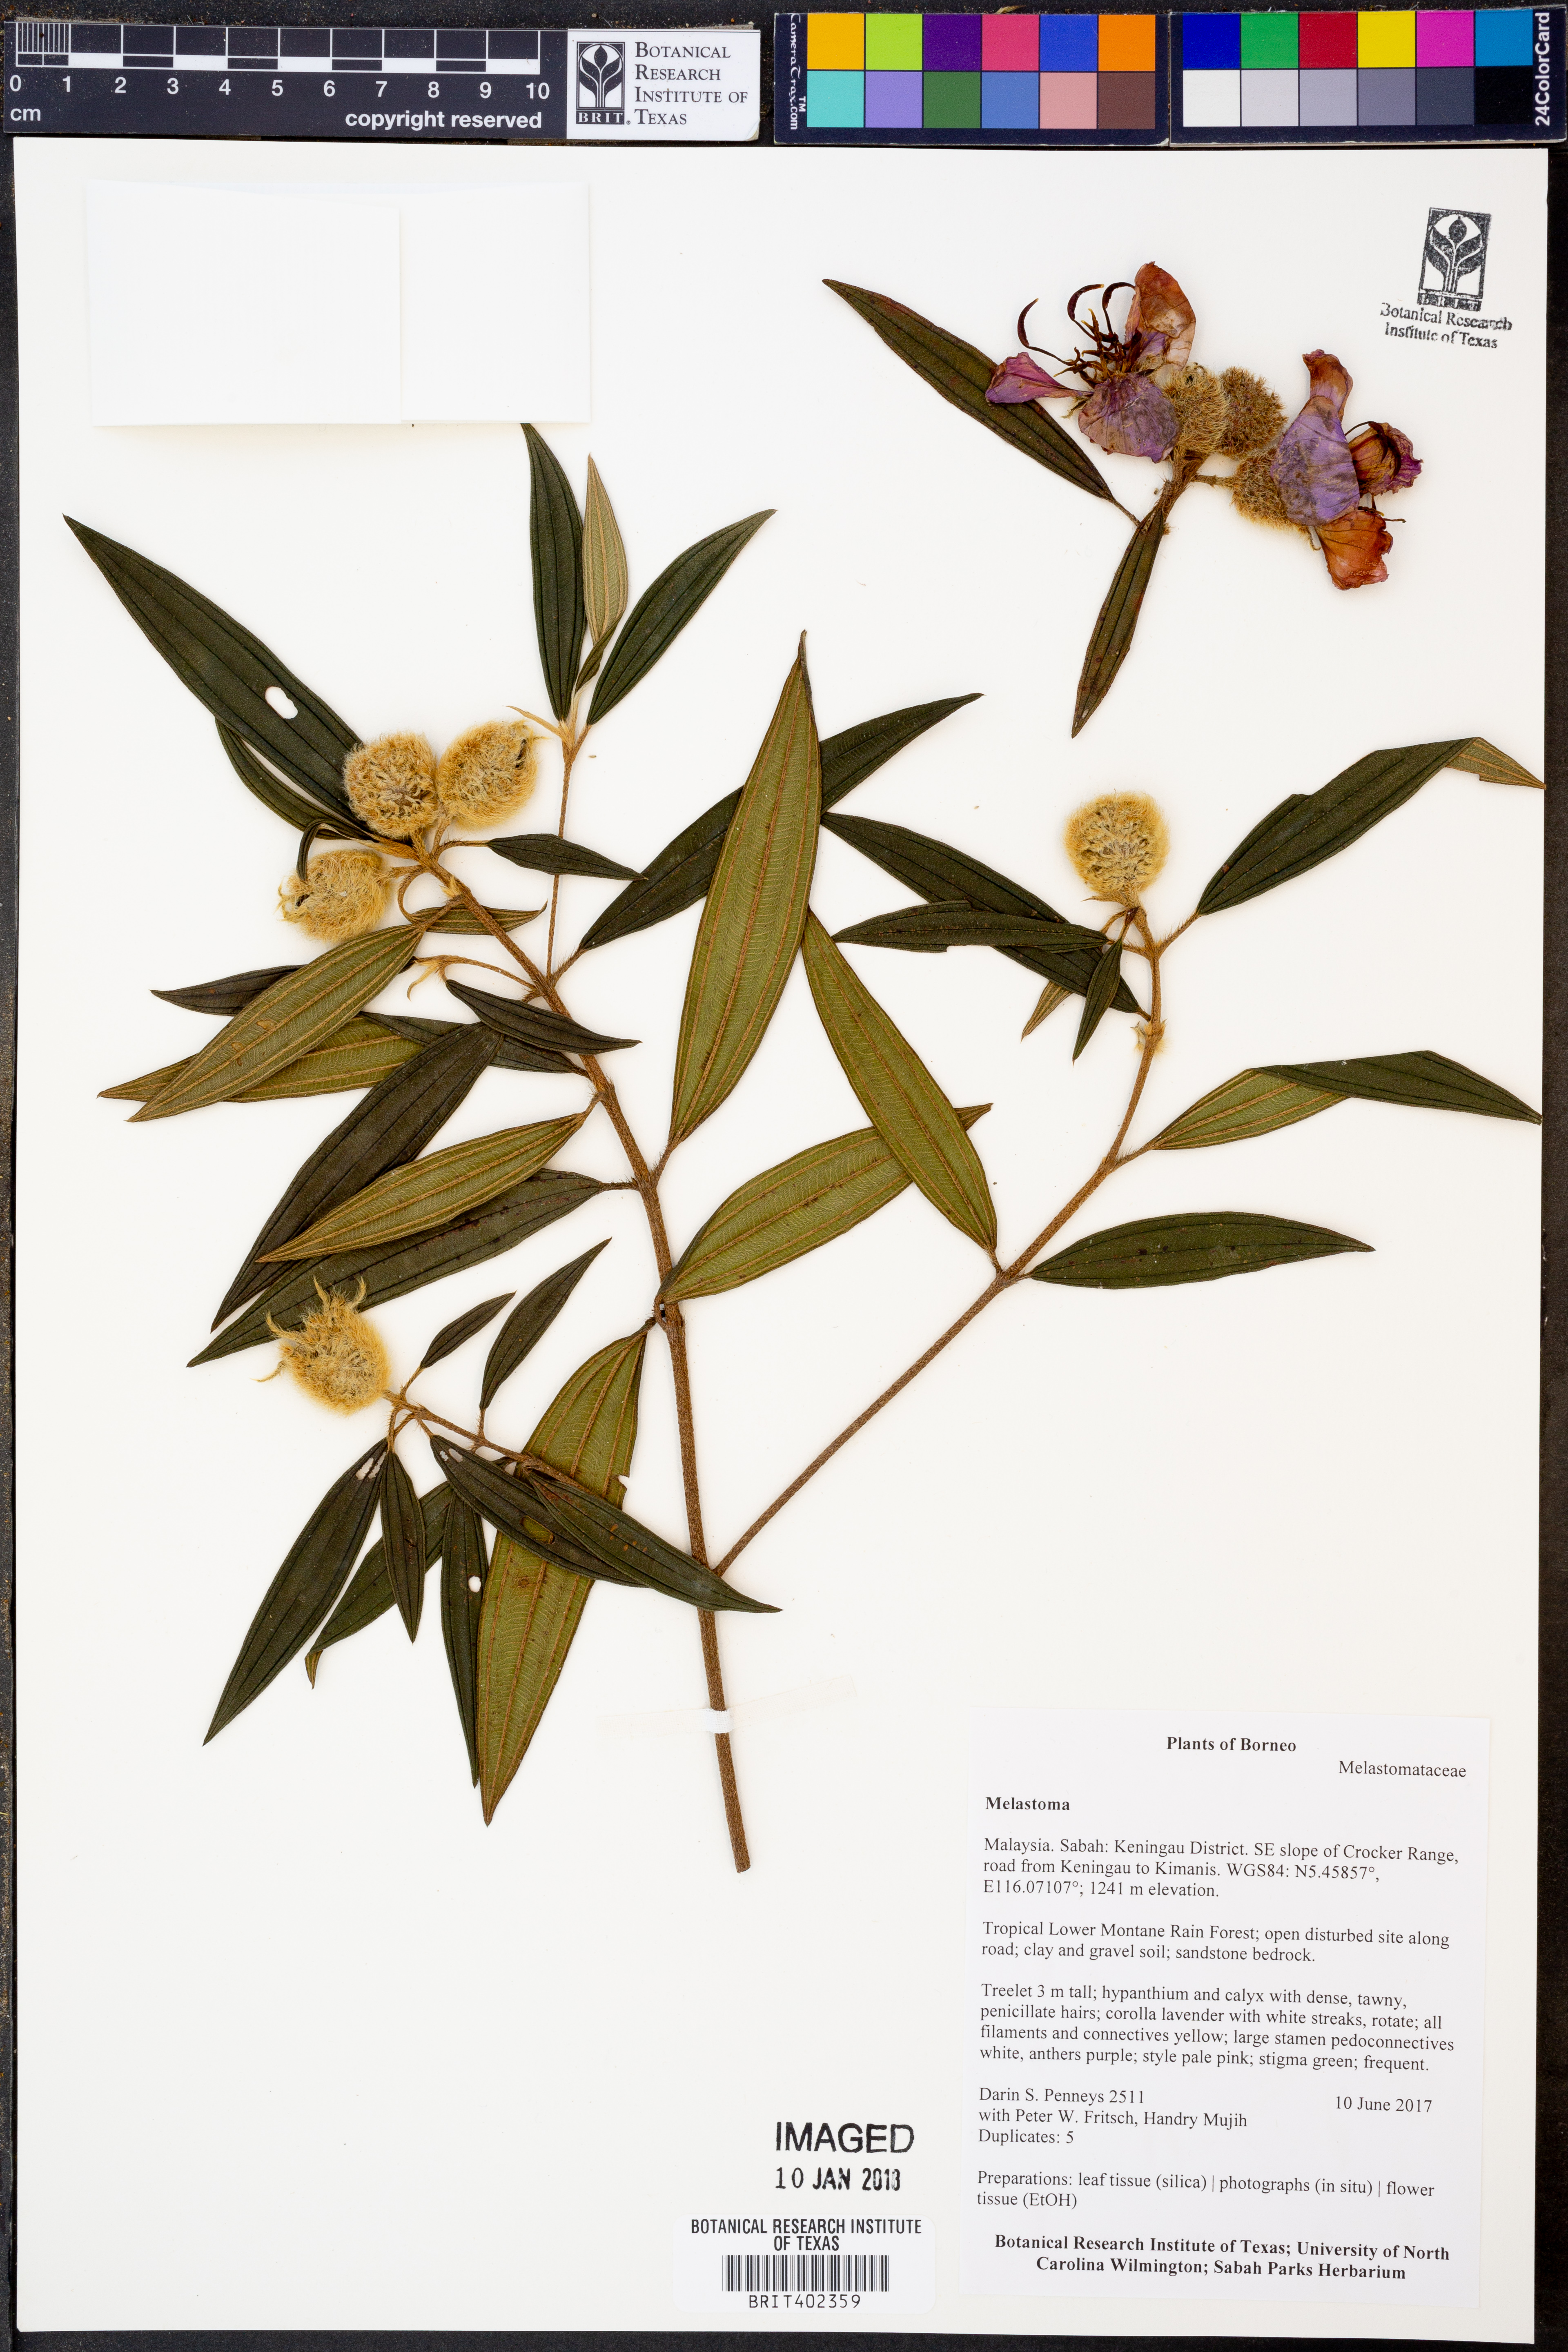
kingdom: Plantae
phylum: Tracheophyta
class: Magnoliopsida
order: Myrtales
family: Melastomataceae
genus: Melastoma
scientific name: Melastoma
